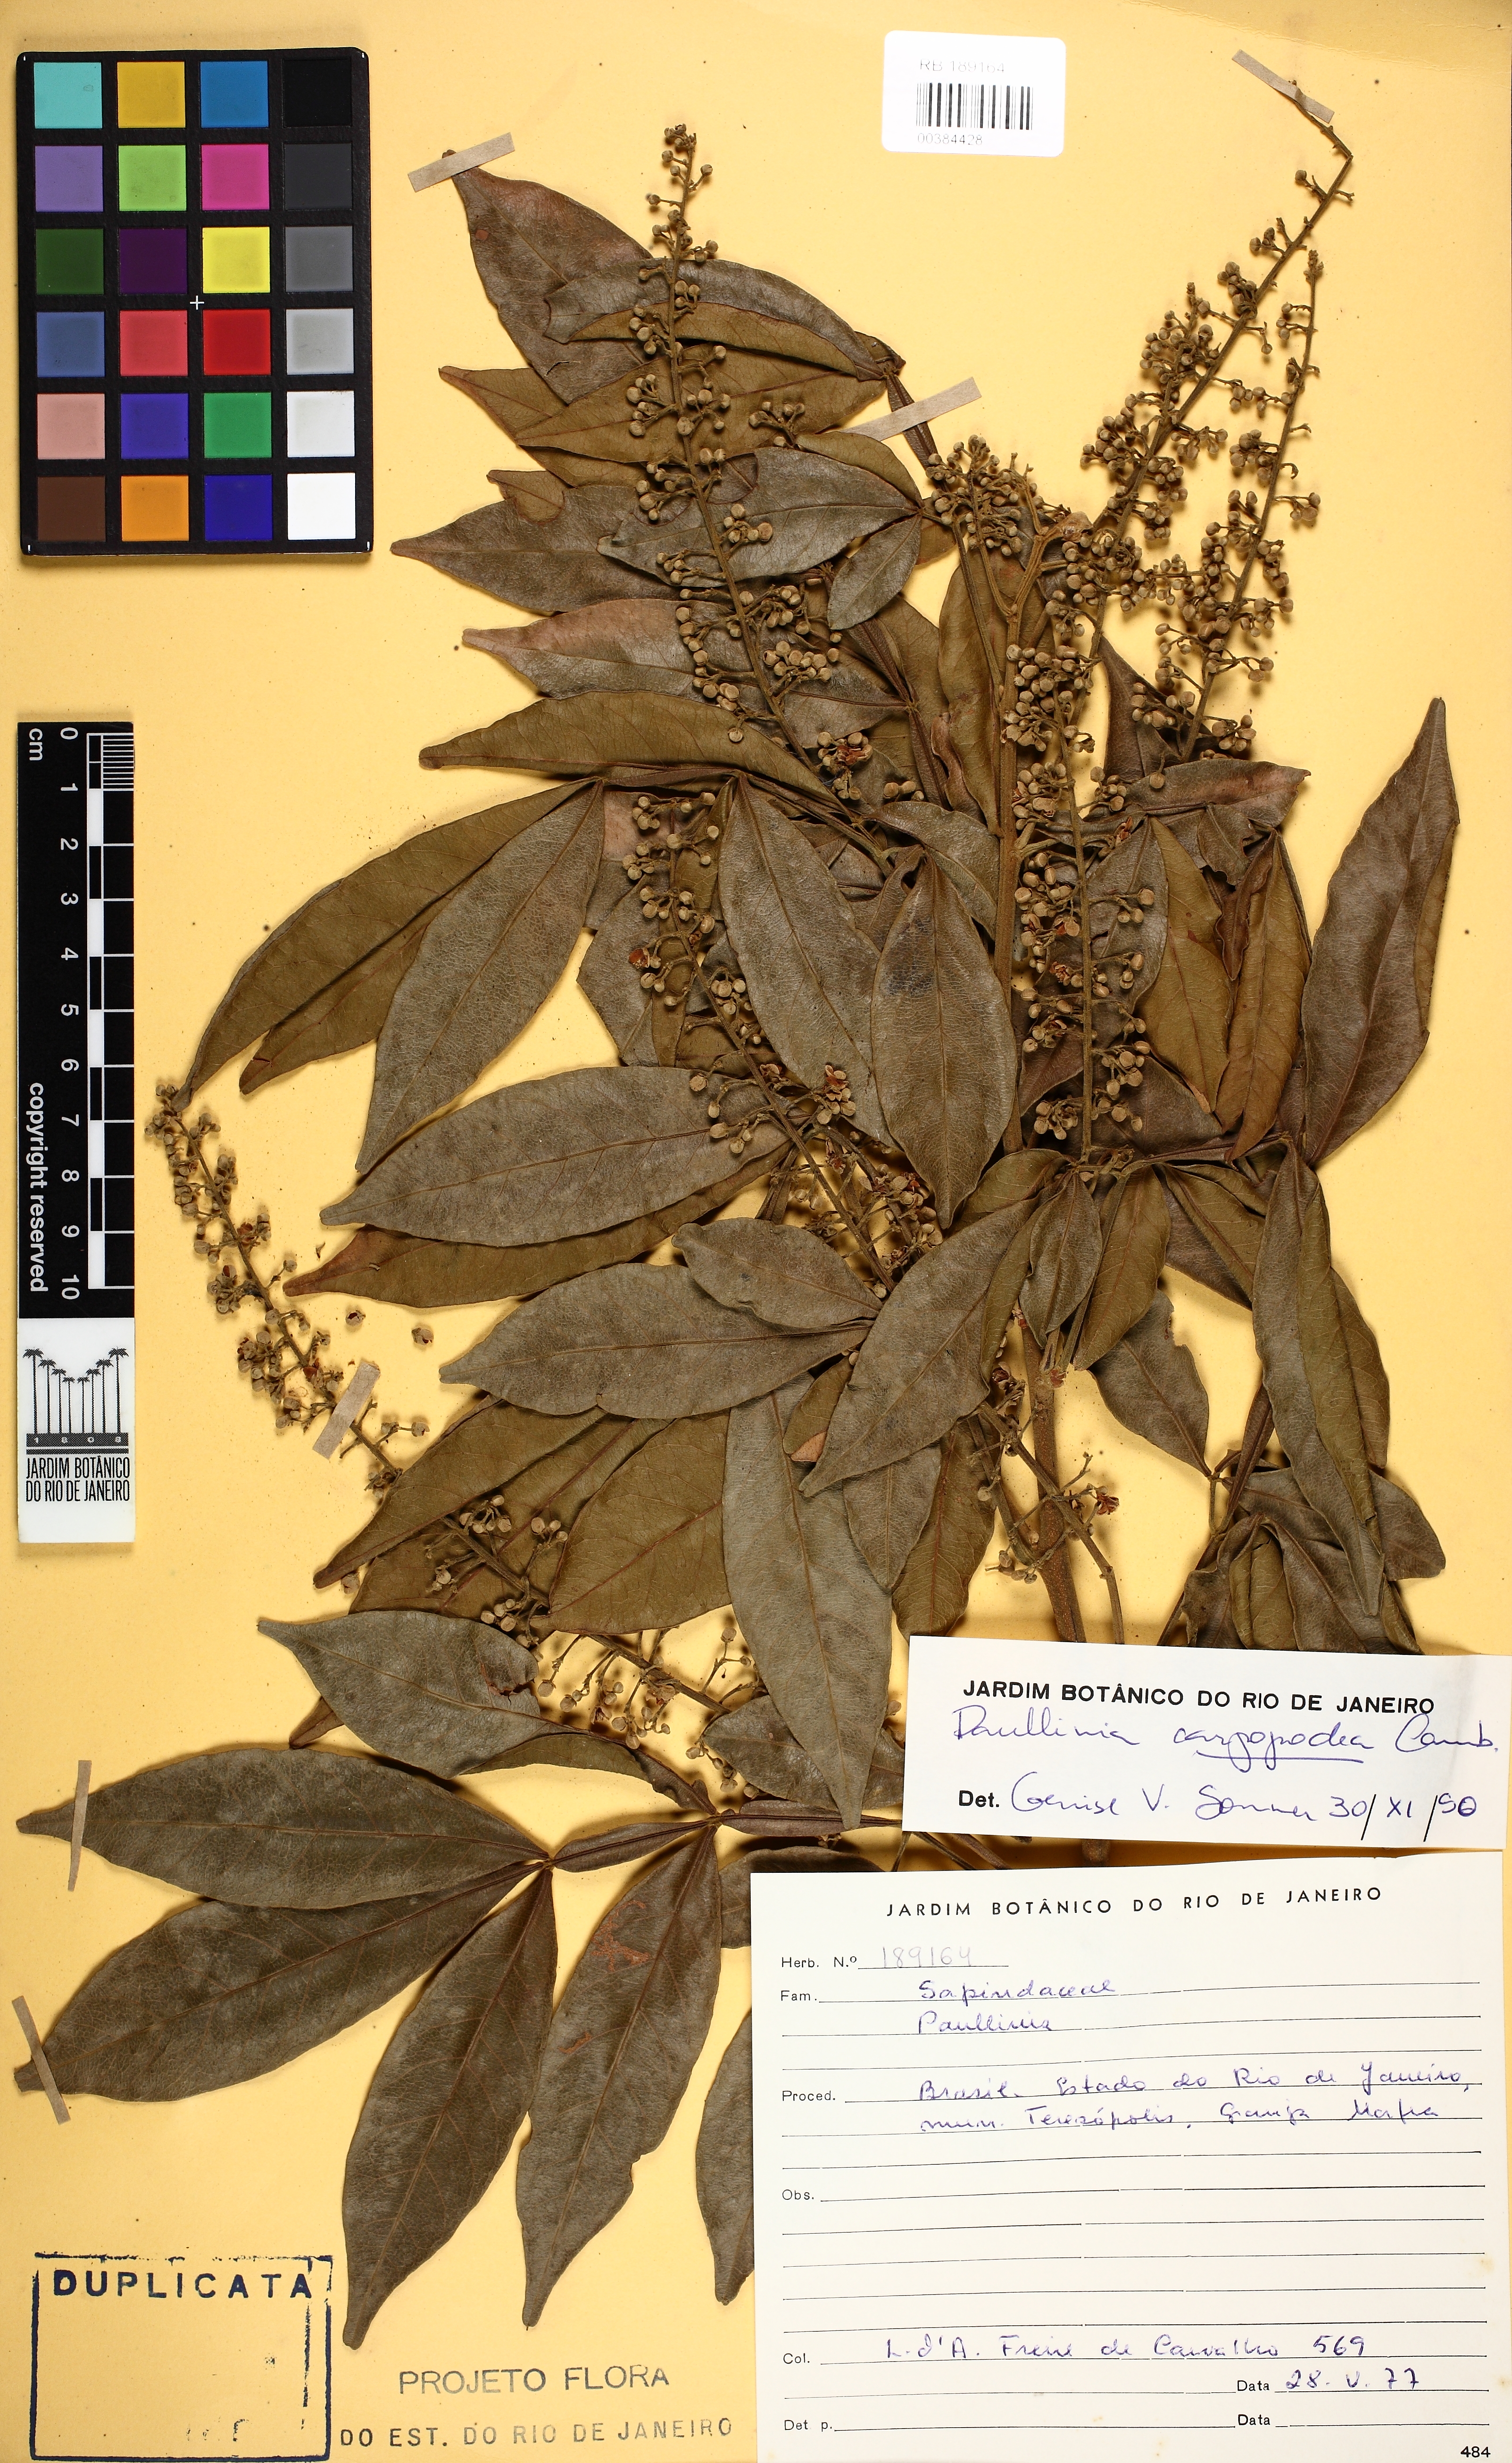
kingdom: Plantae
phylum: Tracheophyta
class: Magnoliopsida
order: Sapindales
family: Sapindaceae
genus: Paullinia
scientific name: Paullinia carpopodea
